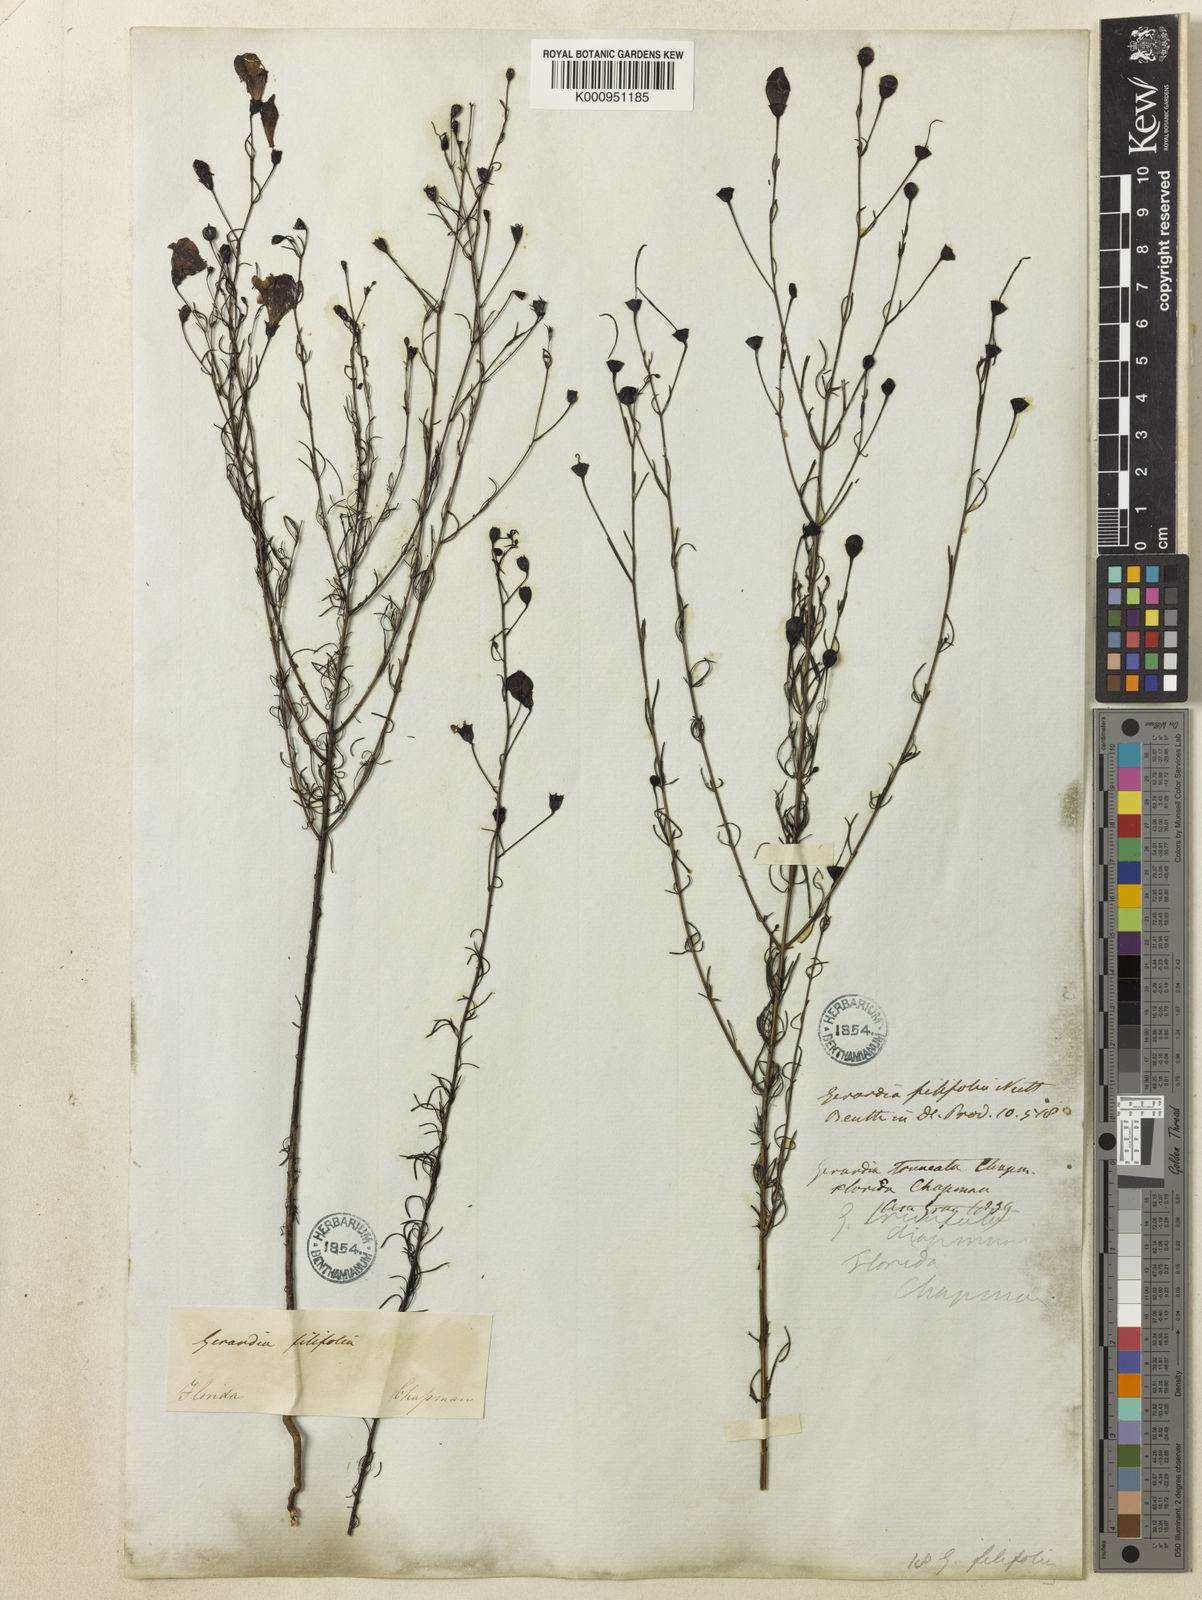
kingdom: Plantae
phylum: Tracheophyta
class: Magnoliopsida
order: Lamiales
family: Orobanchaceae
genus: Agalinis
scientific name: Agalinis filifolia
